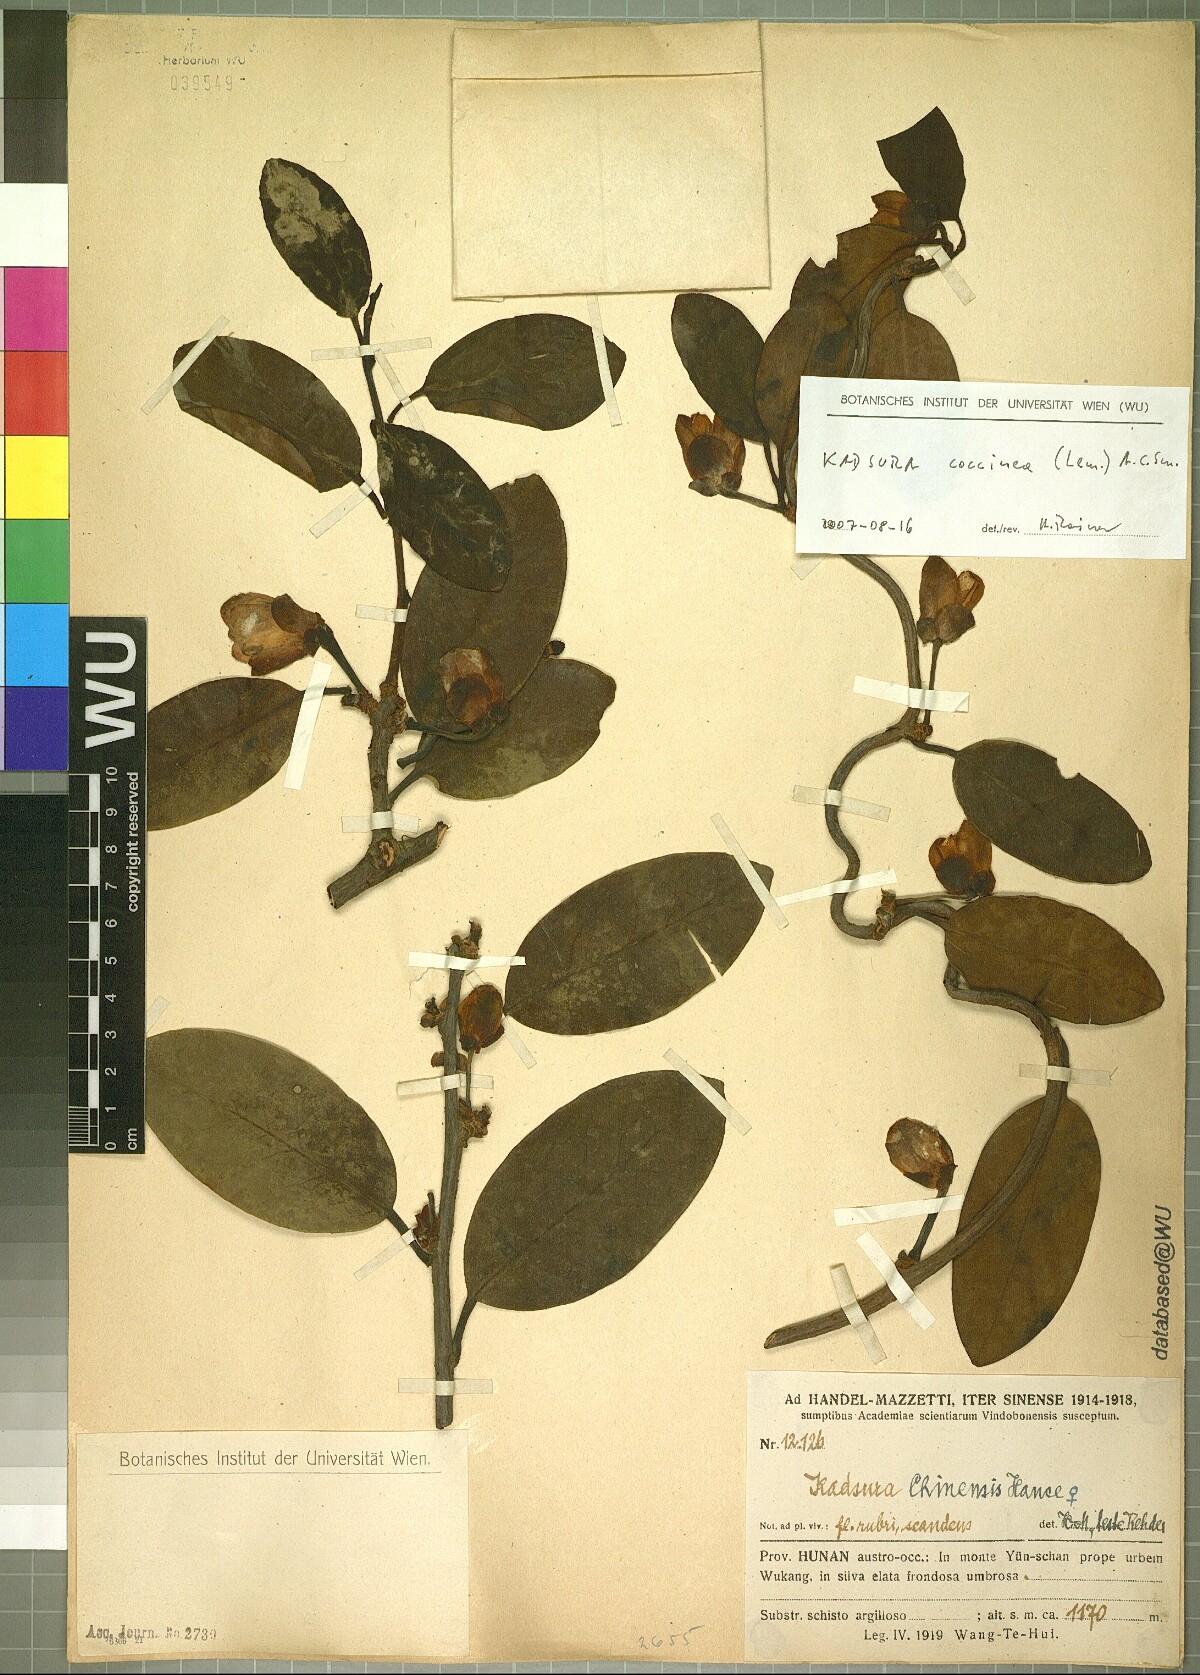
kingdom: Plantae
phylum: Tracheophyta
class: Magnoliopsida
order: Austrobaileyales
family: Schisandraceae
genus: Kadsura
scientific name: Kadsura coccinea
